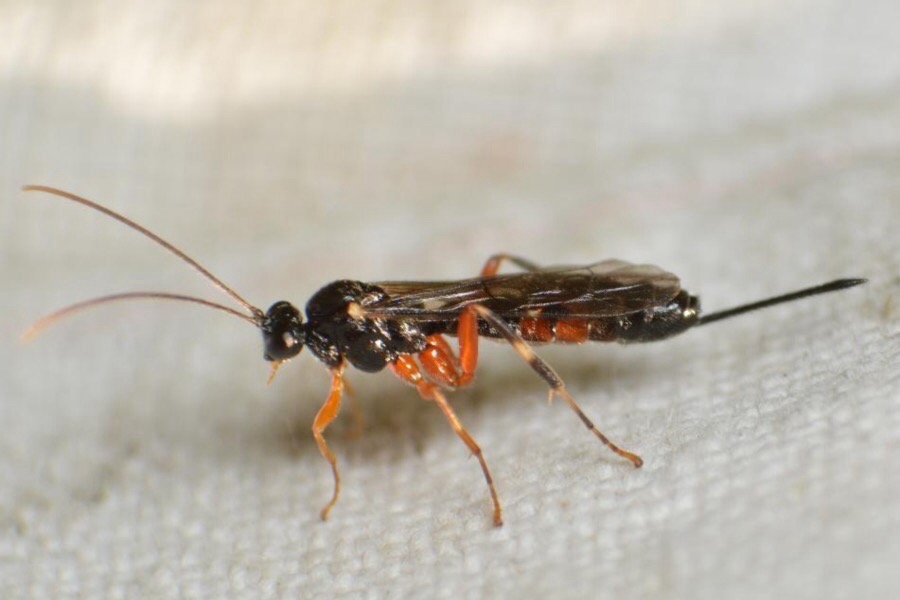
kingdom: Animalia
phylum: Arthropoda
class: Insecta
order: Hymenoptera
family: Ichneumonidae
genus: Zaglyptus
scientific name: Zaglyptus varipes
